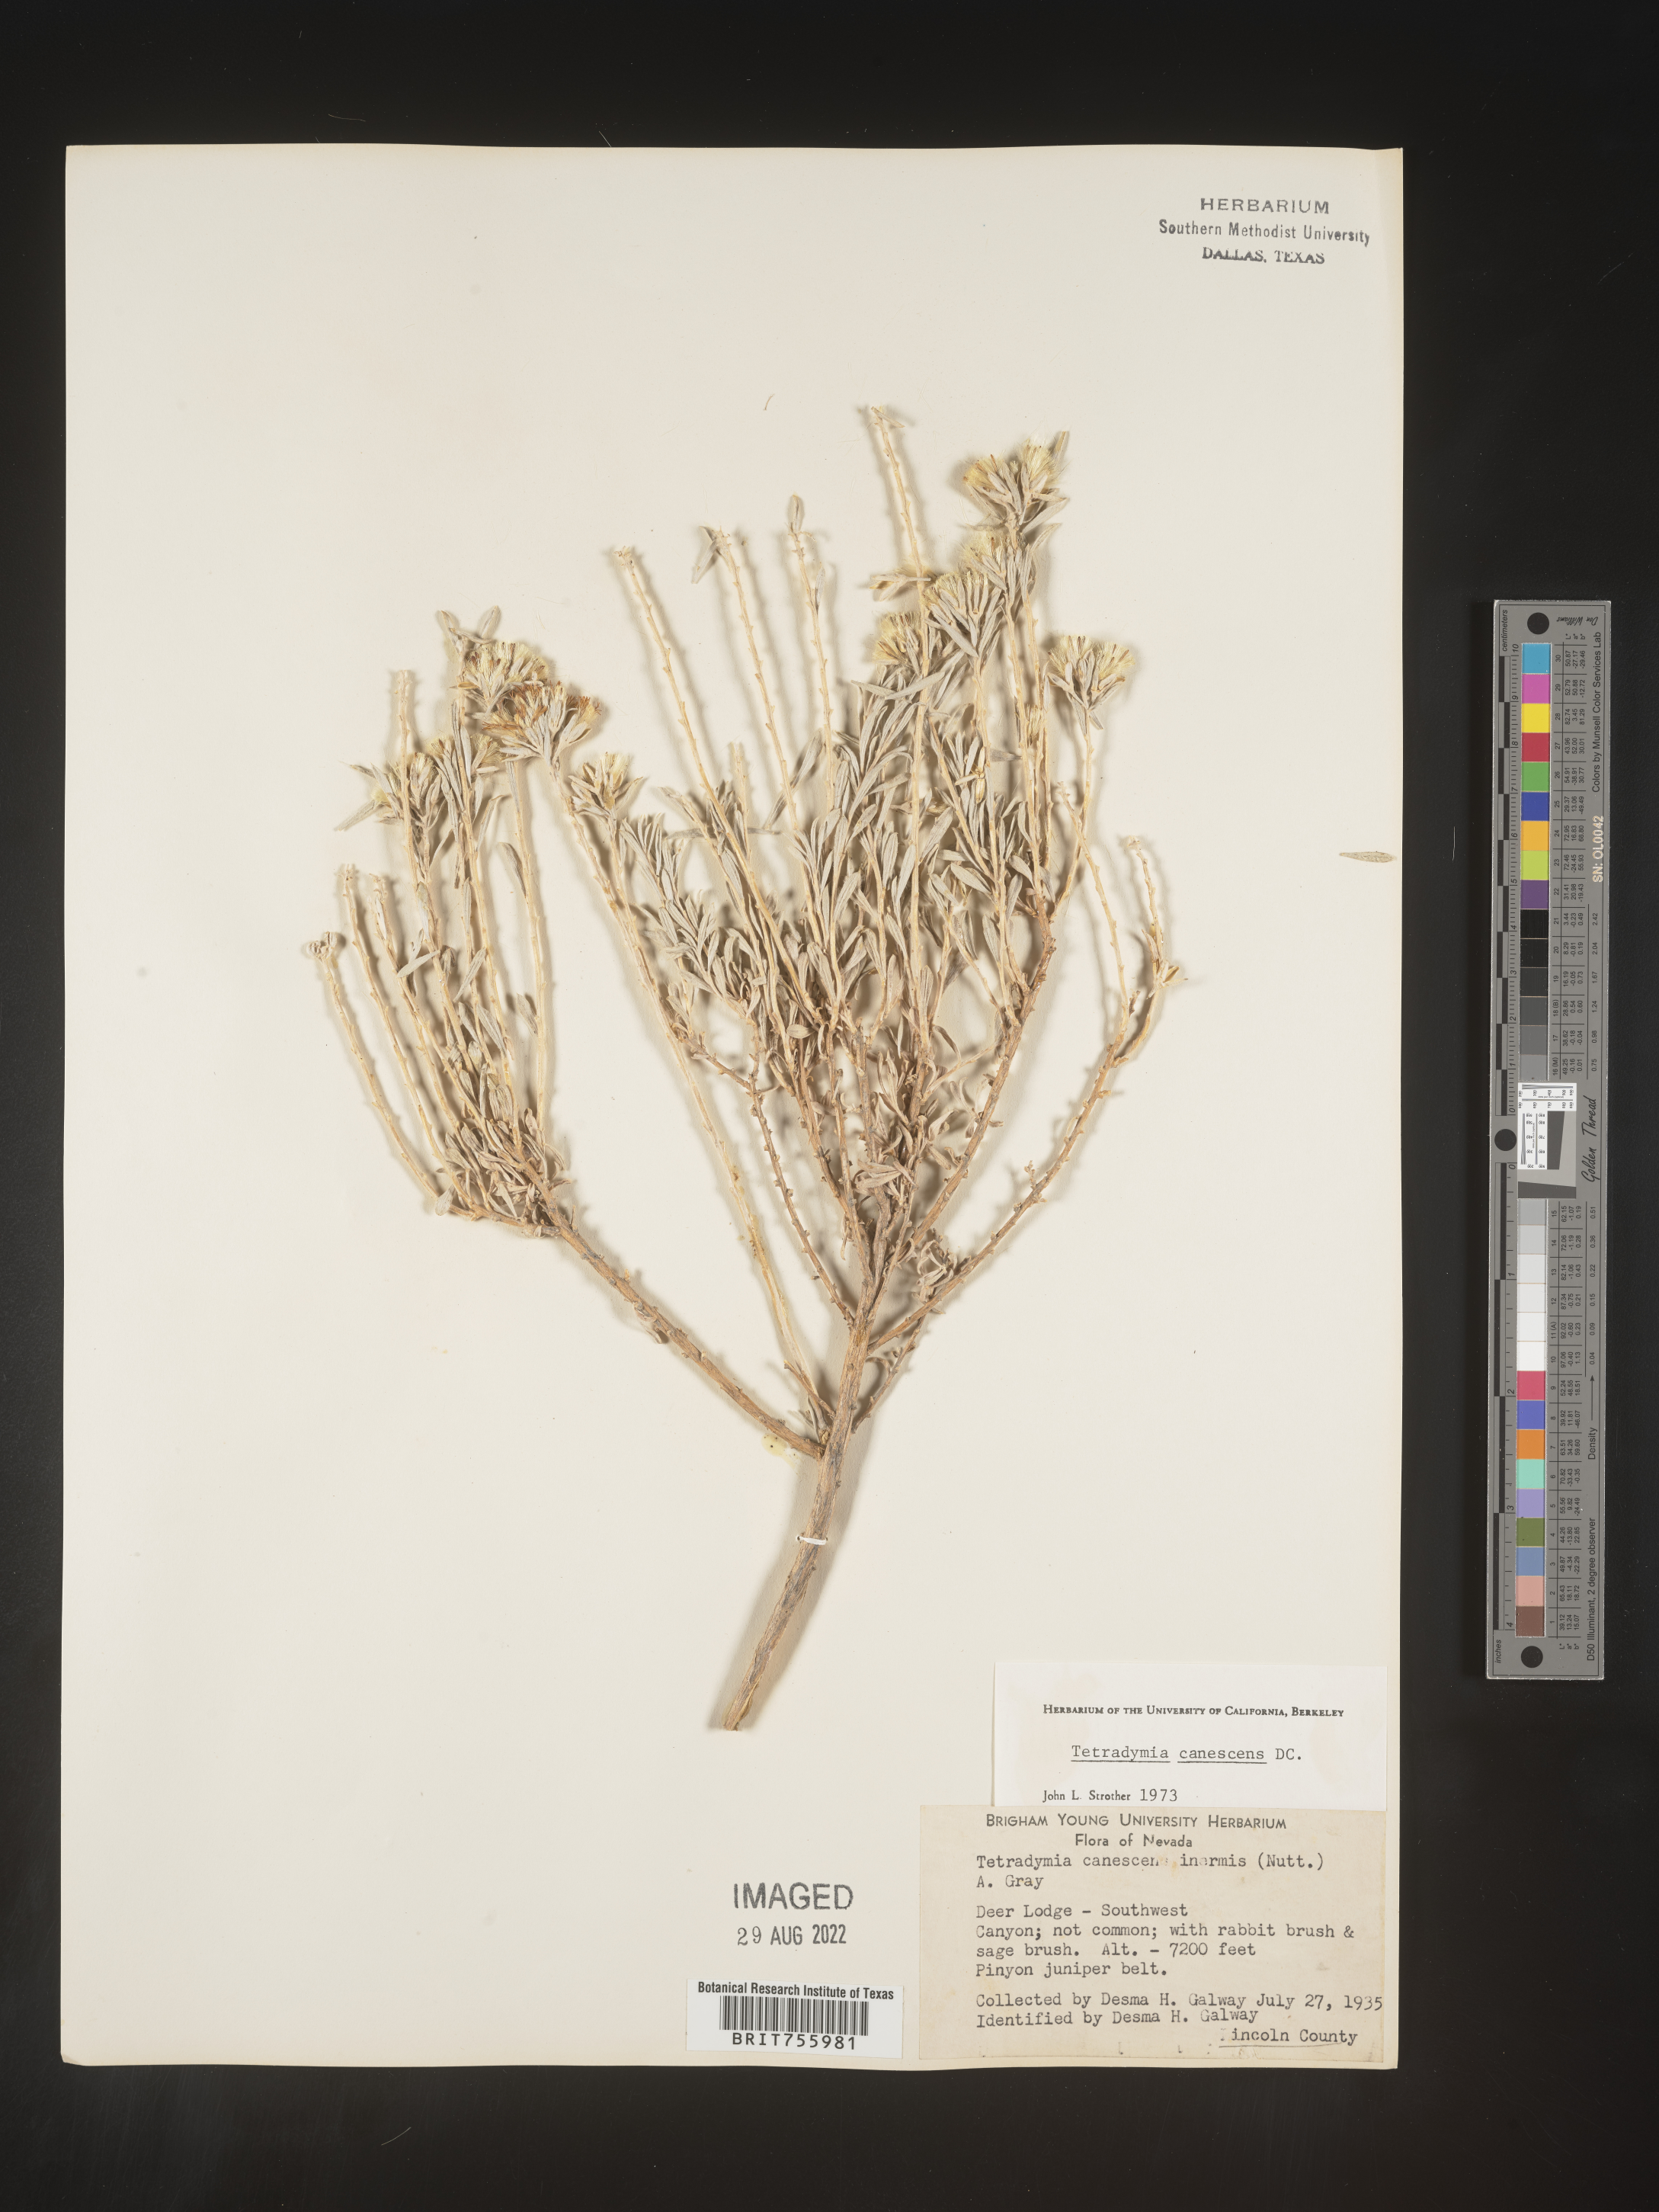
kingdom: Plantae
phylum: Tracheophyta
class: Magnoliopsida
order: Asterales
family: Asteraceae
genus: Tetradymia
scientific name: Tetradymia canescens
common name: Spineless horsebrush
